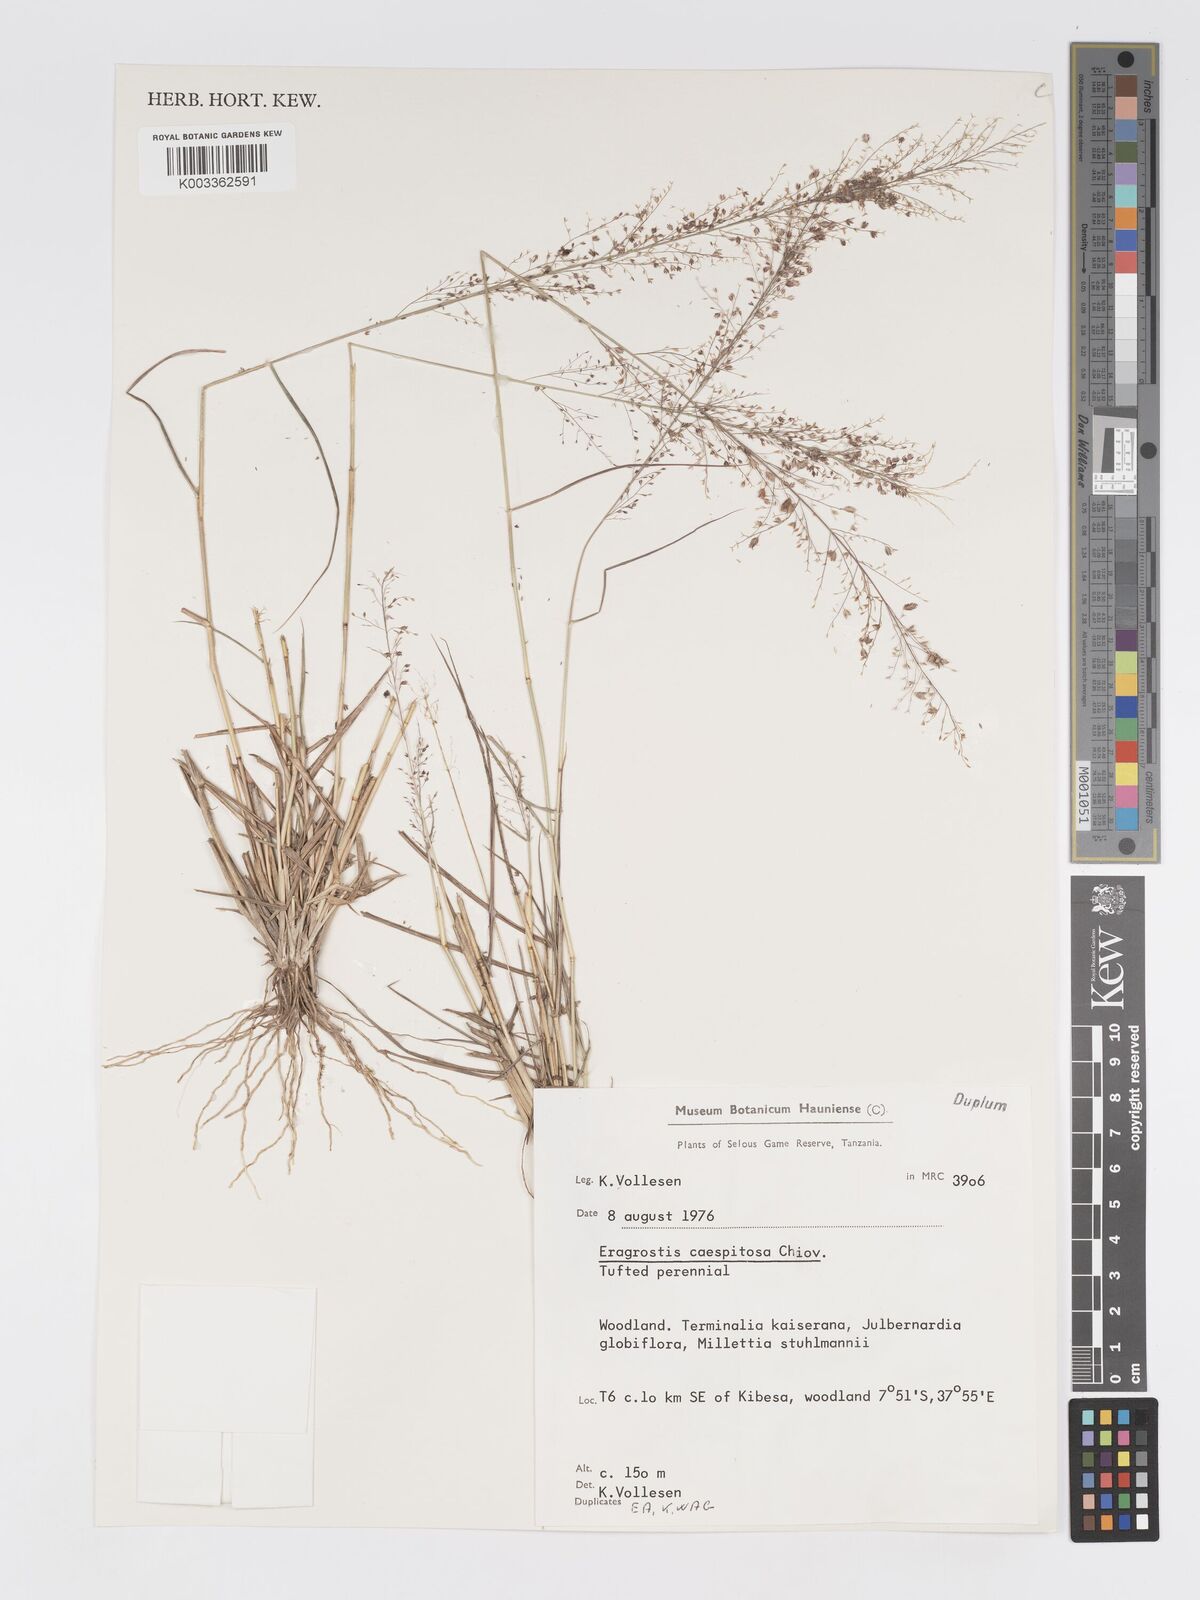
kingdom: Plantae
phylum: Tracheophyta
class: Liliopsida
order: Poales
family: Poaceae
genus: Eragrostis
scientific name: Eragrostis caespitosa
